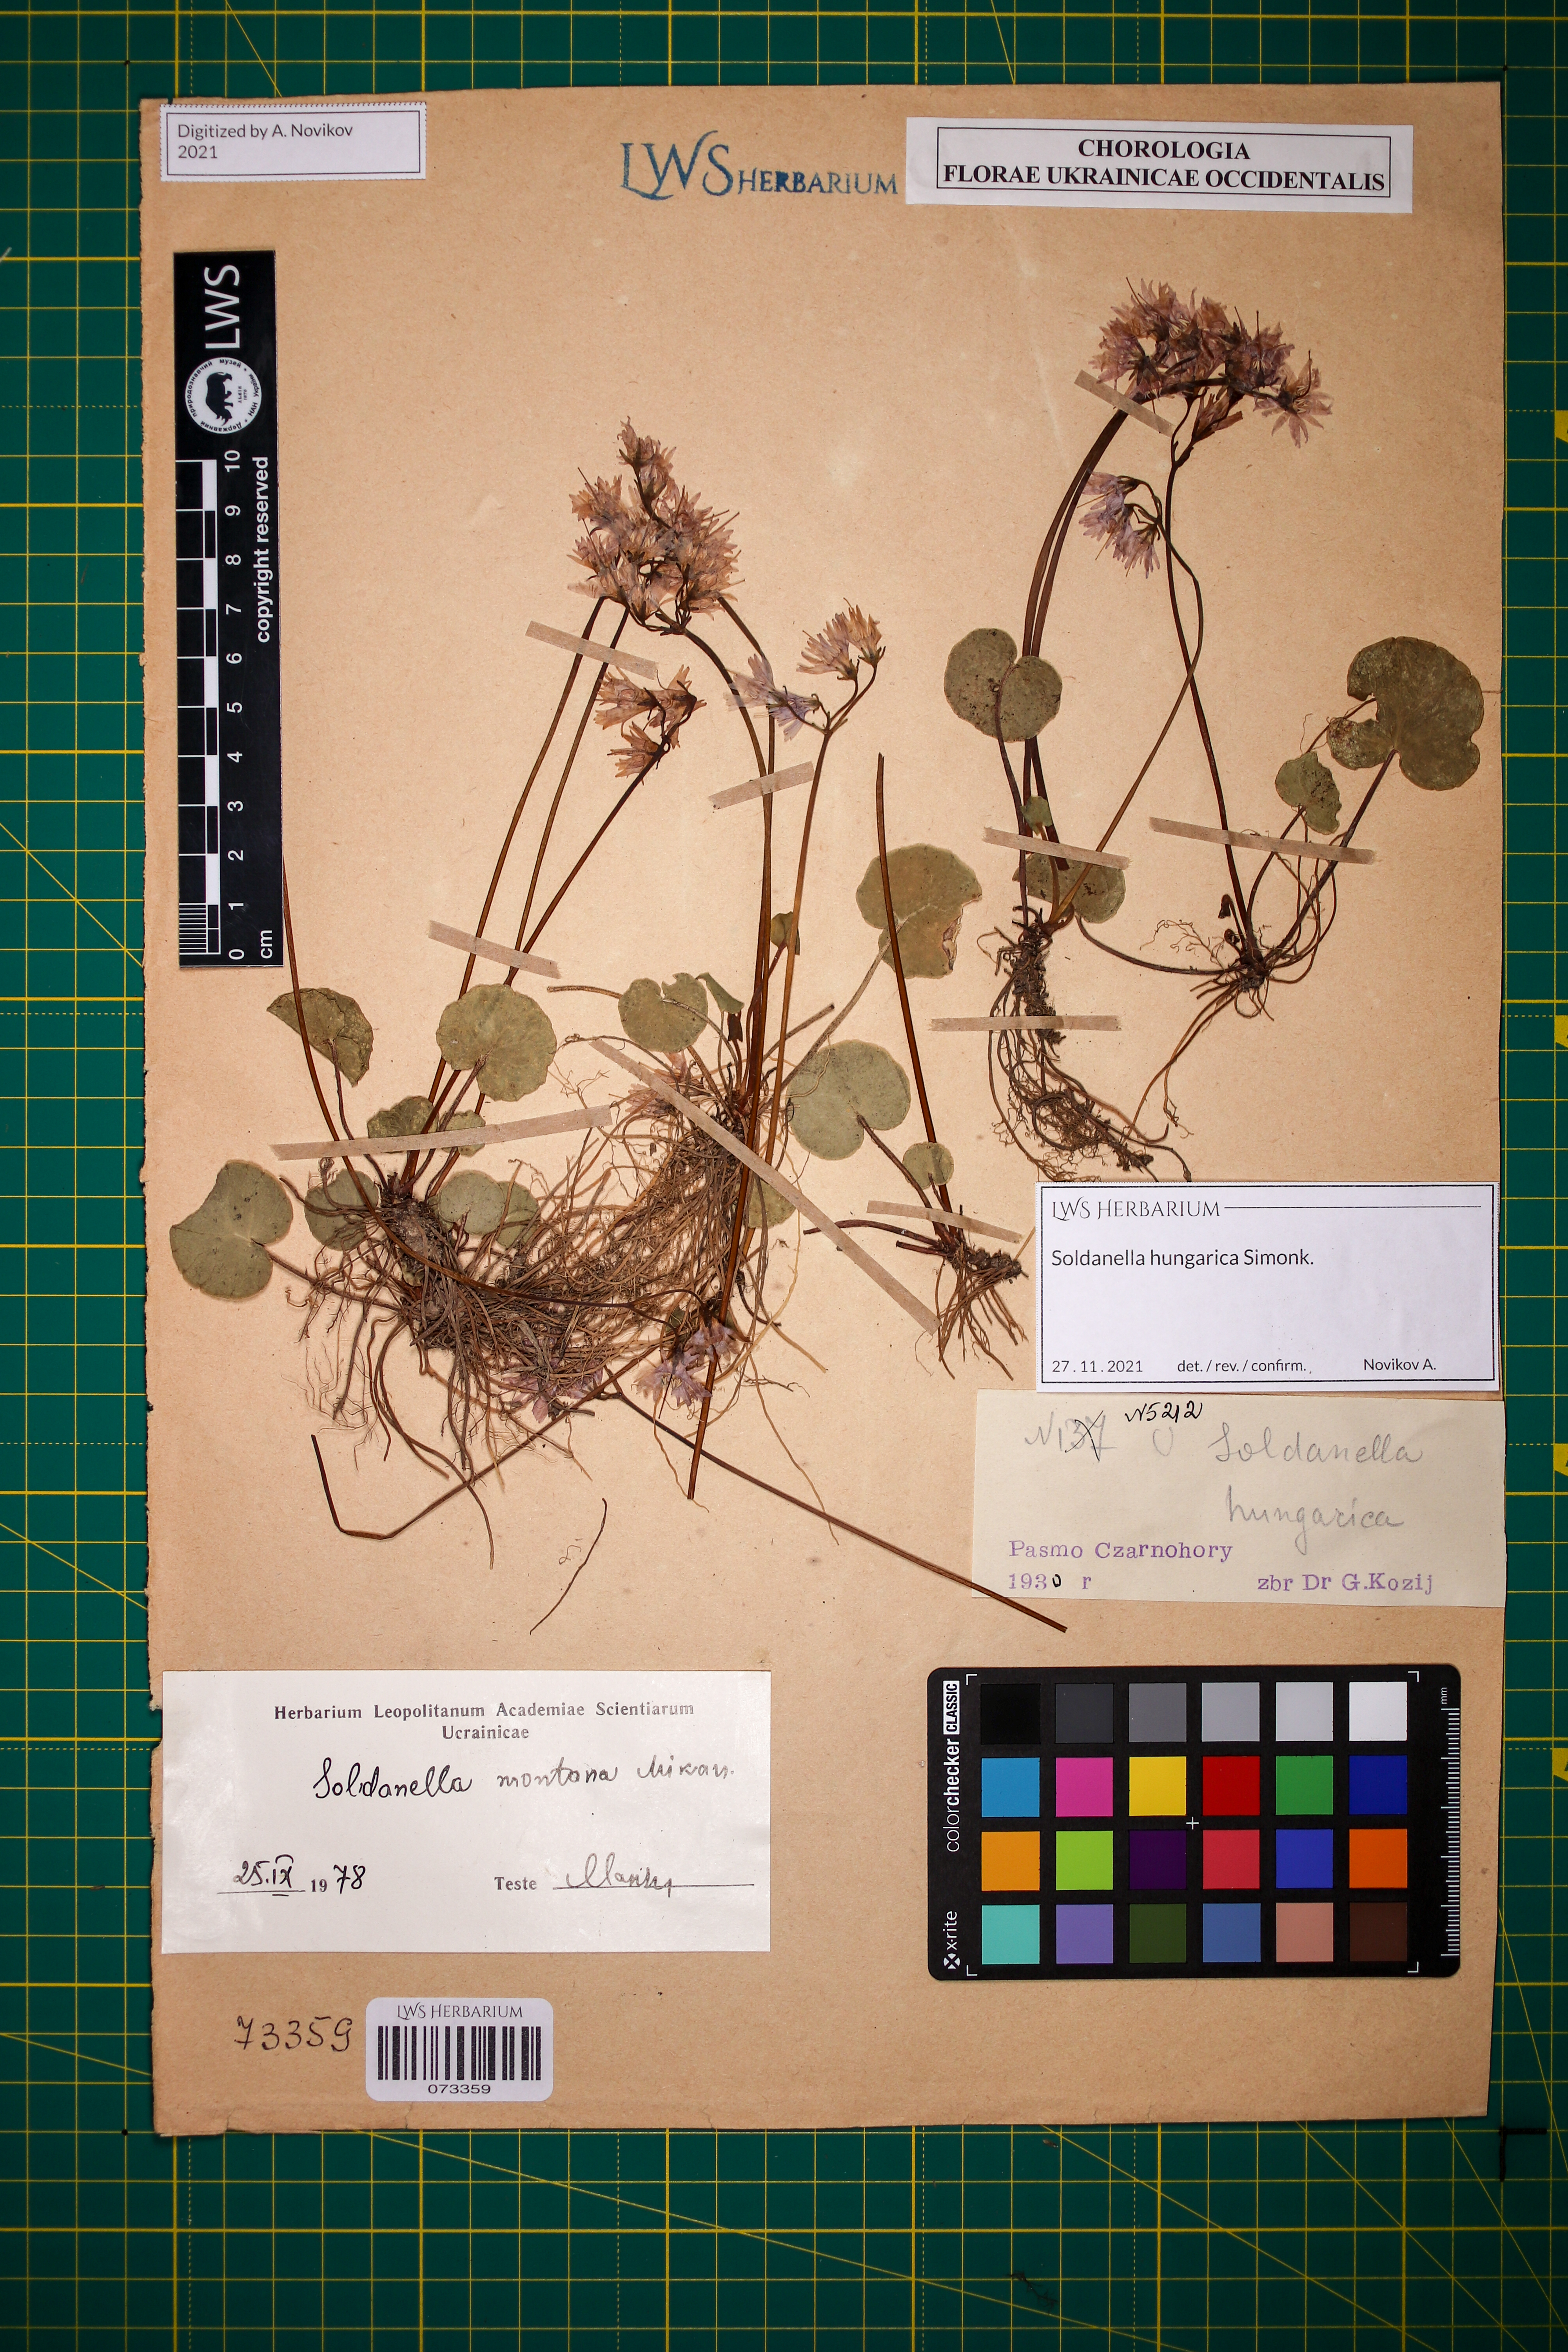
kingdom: Plantae
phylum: Tracheophyta
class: Magnoliopsida
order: Ericales
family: Primulaceae
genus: Soldanella
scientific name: Soldanella hungarica
